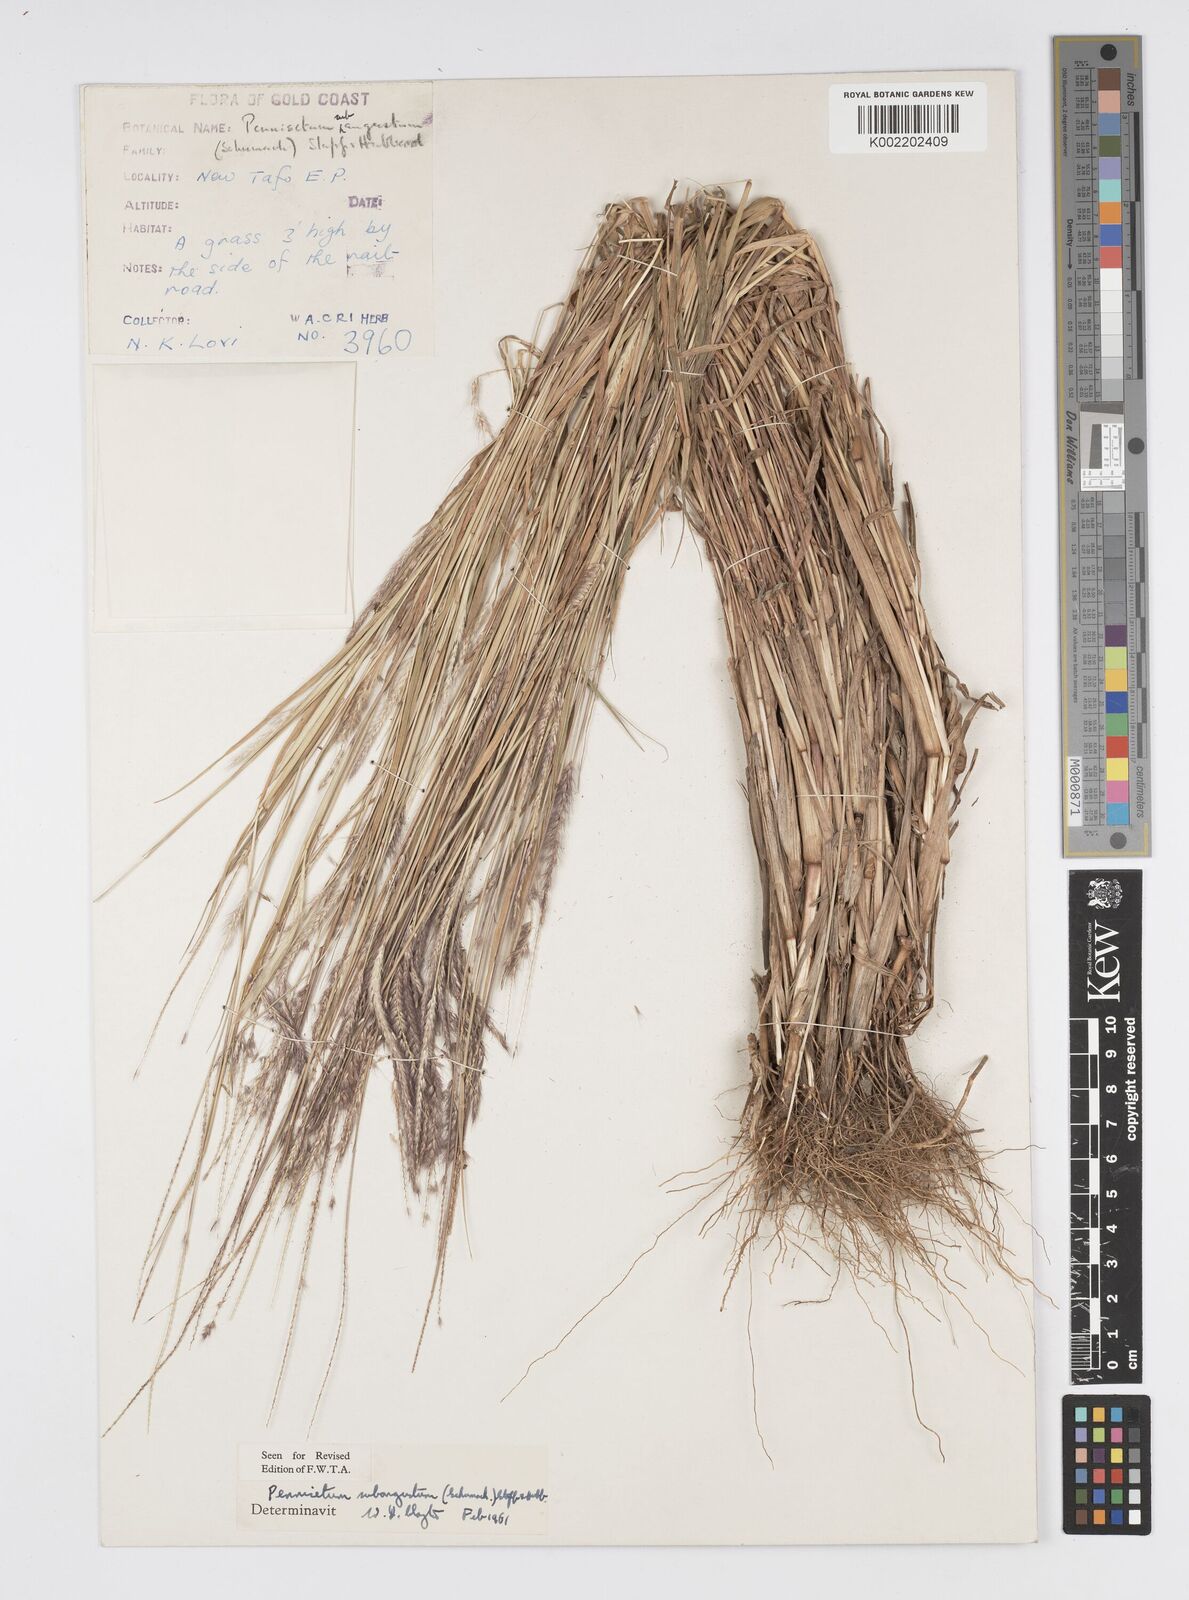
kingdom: Plantae
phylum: Tracheophyta
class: Liliopsida
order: Poales
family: Poaceae
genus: Setaria
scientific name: Setaria parviflora
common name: Knotroot bristle-grass
